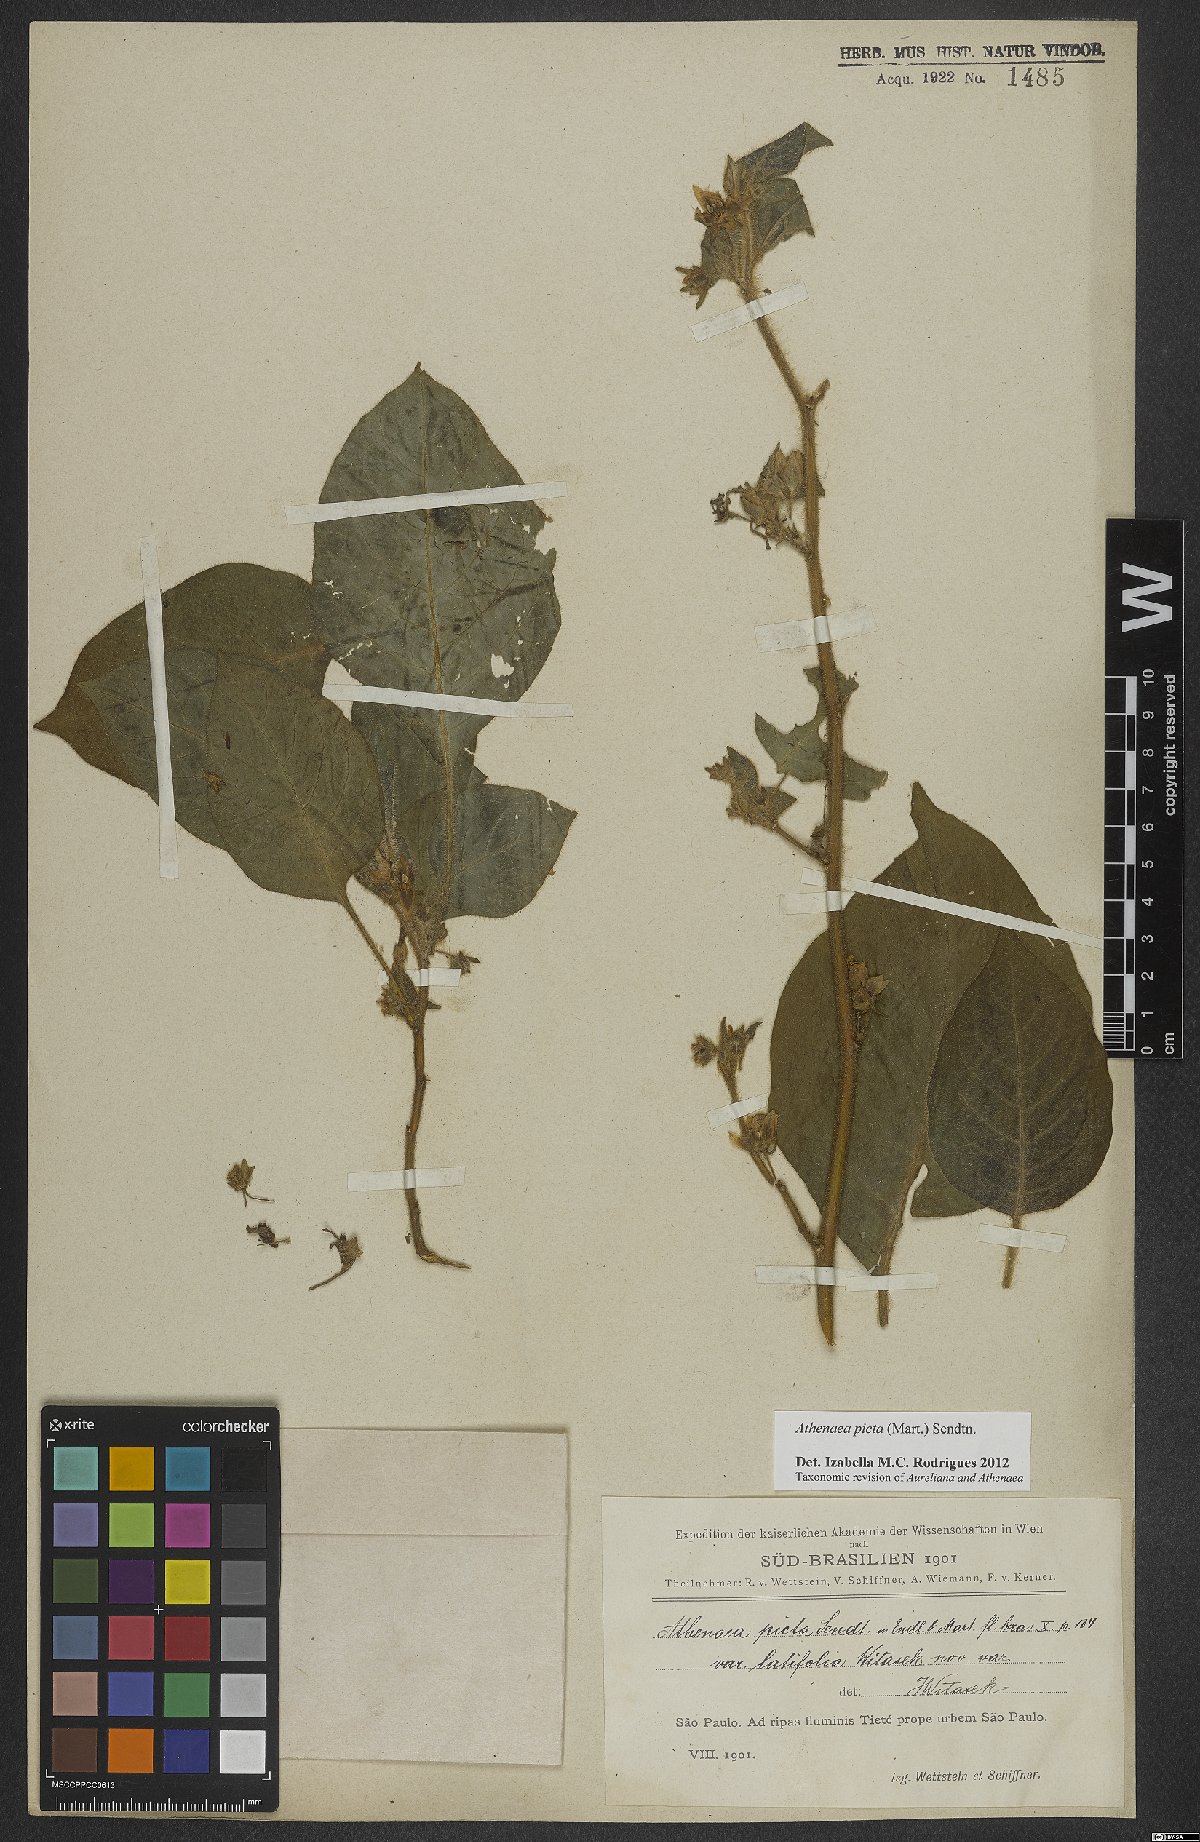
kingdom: Plantae
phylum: Tracheophyta
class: Magnoliopsida
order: Solanales
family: Solanaceae
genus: Athenaea
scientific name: Athenaea picta
